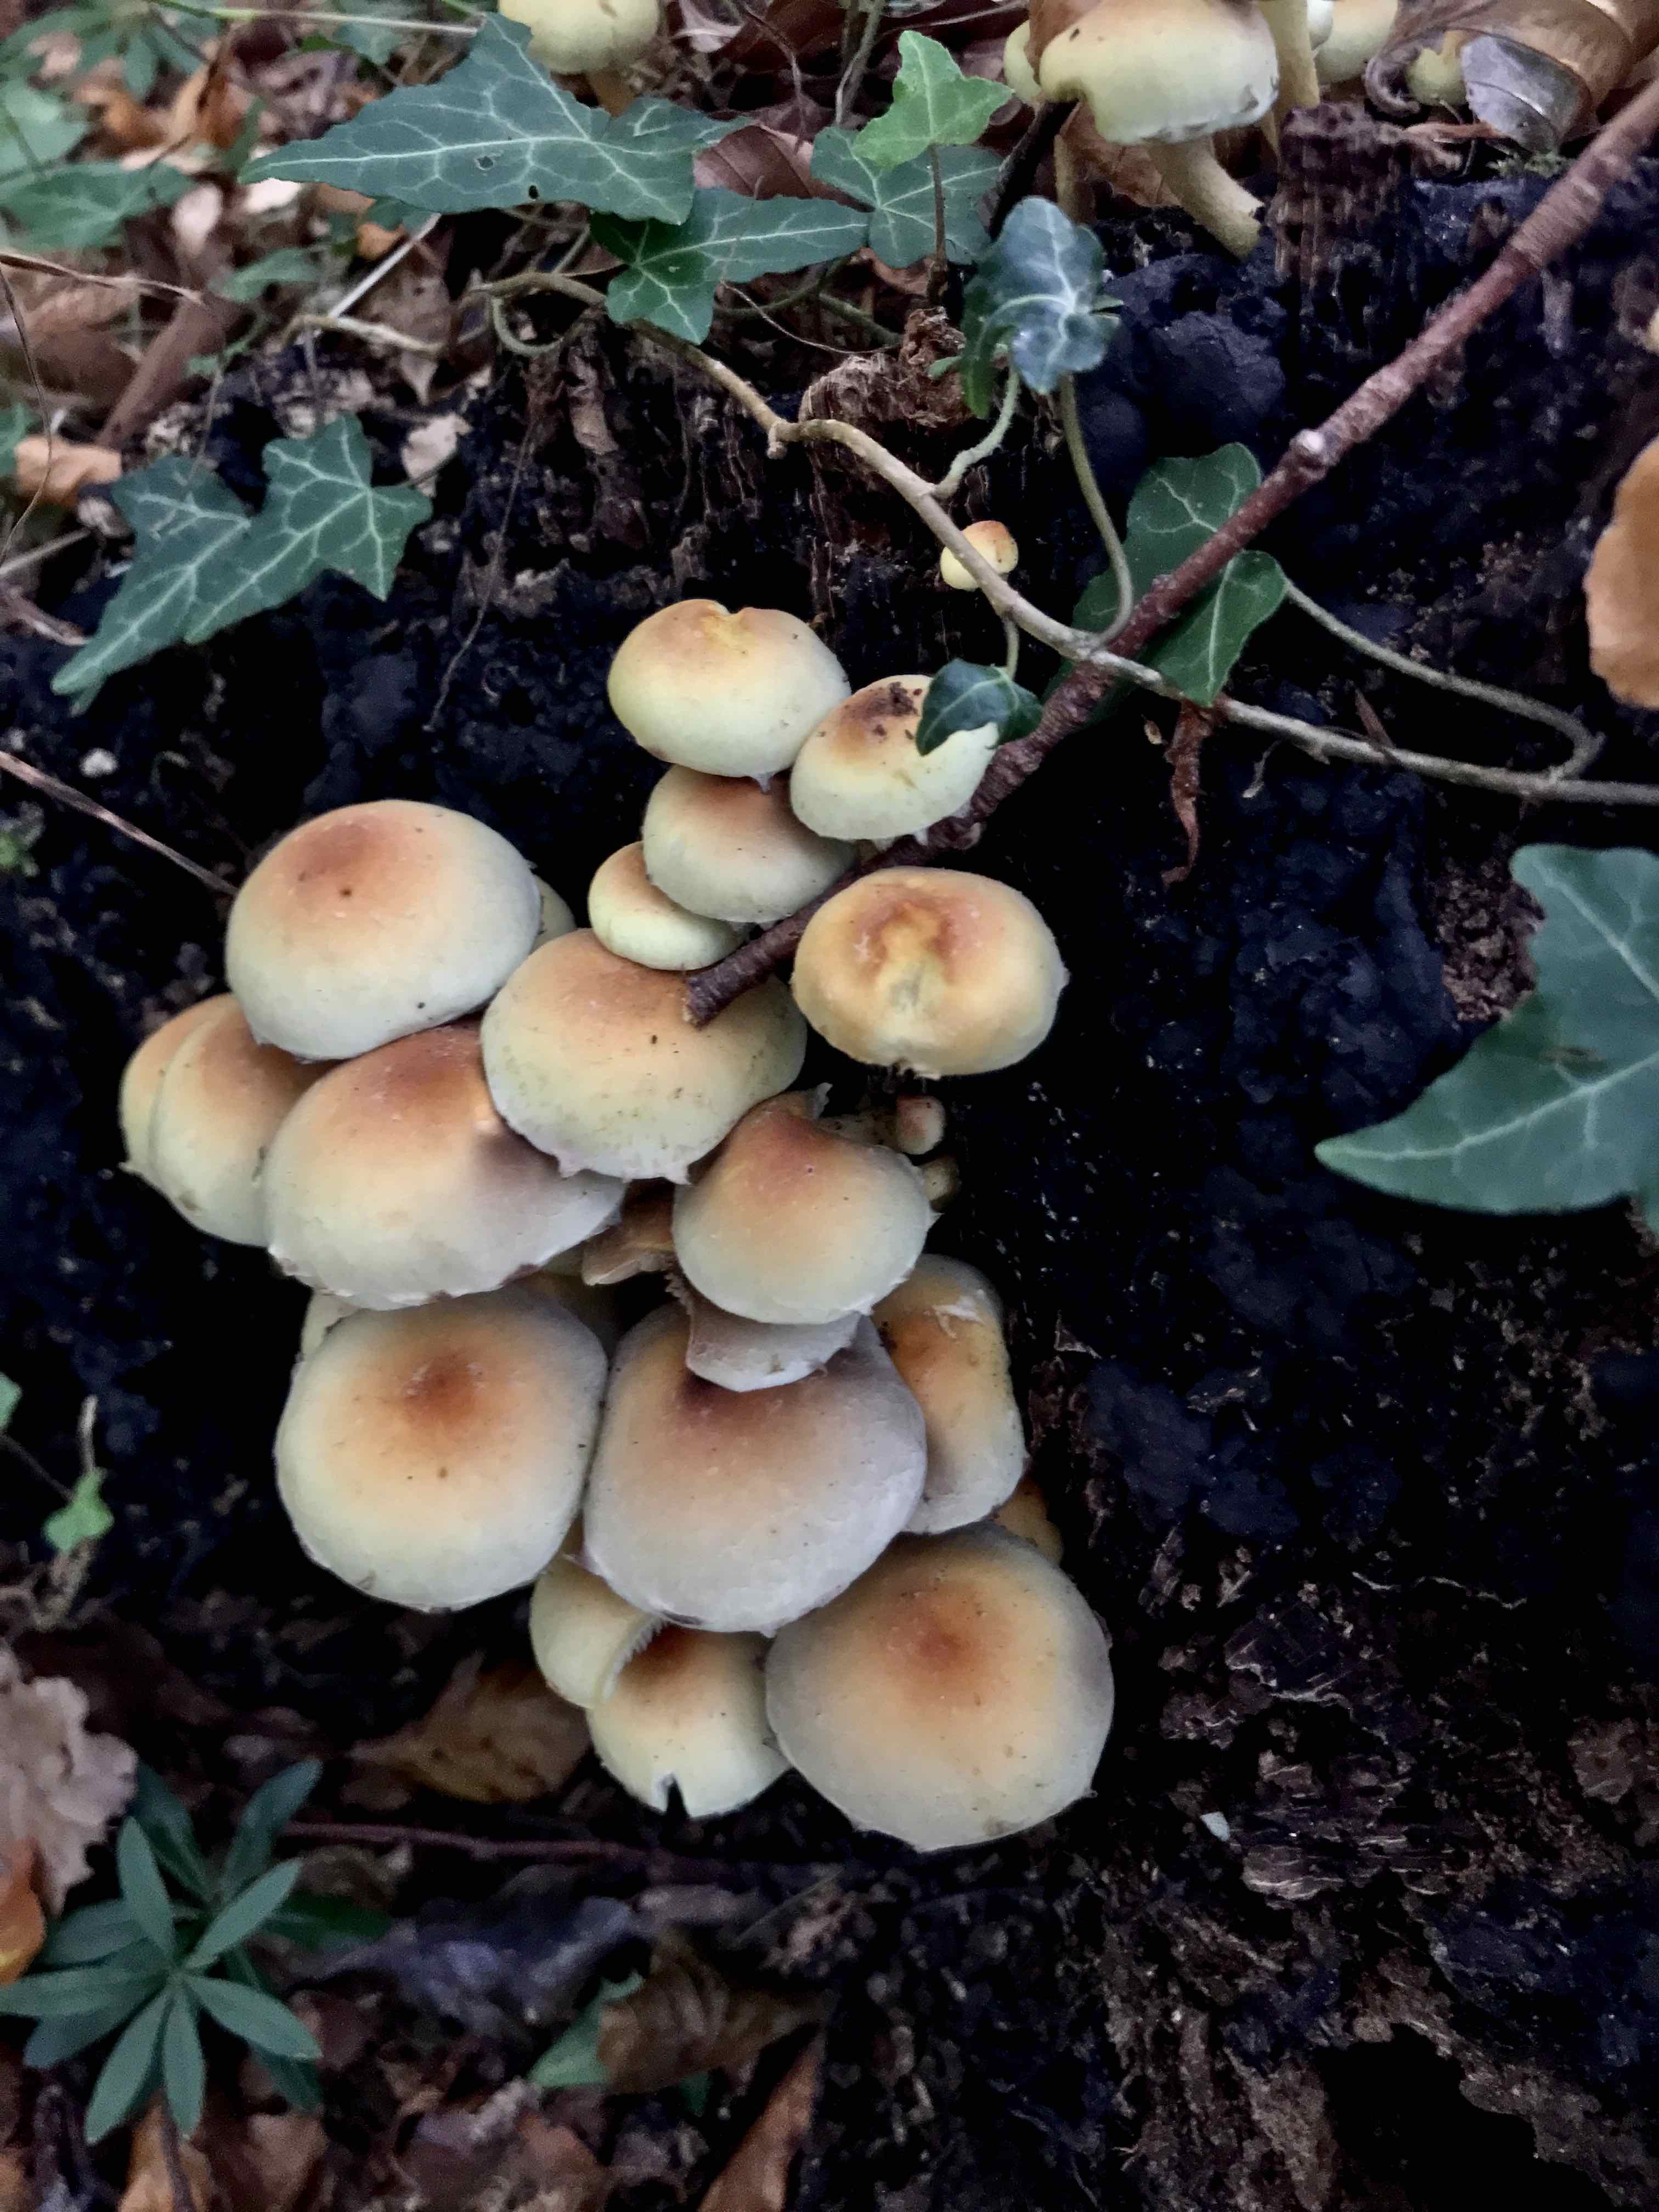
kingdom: Fungi
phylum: Basidiomycota
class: Agaricomycetes
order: Agaricales
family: Strophariaceae
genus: Hypholoma
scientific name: Hypholoma fasciculare
